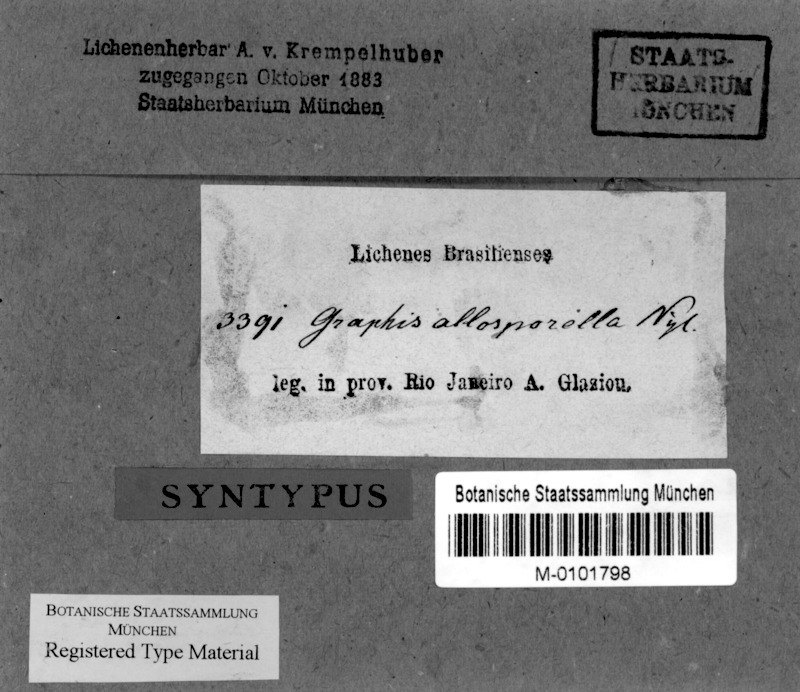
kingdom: Fungi
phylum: Ascomycota
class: Lecanoromycetes
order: Ostropales
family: Graphidaceae
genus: Platythecium
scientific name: Platythecium allosporellum
